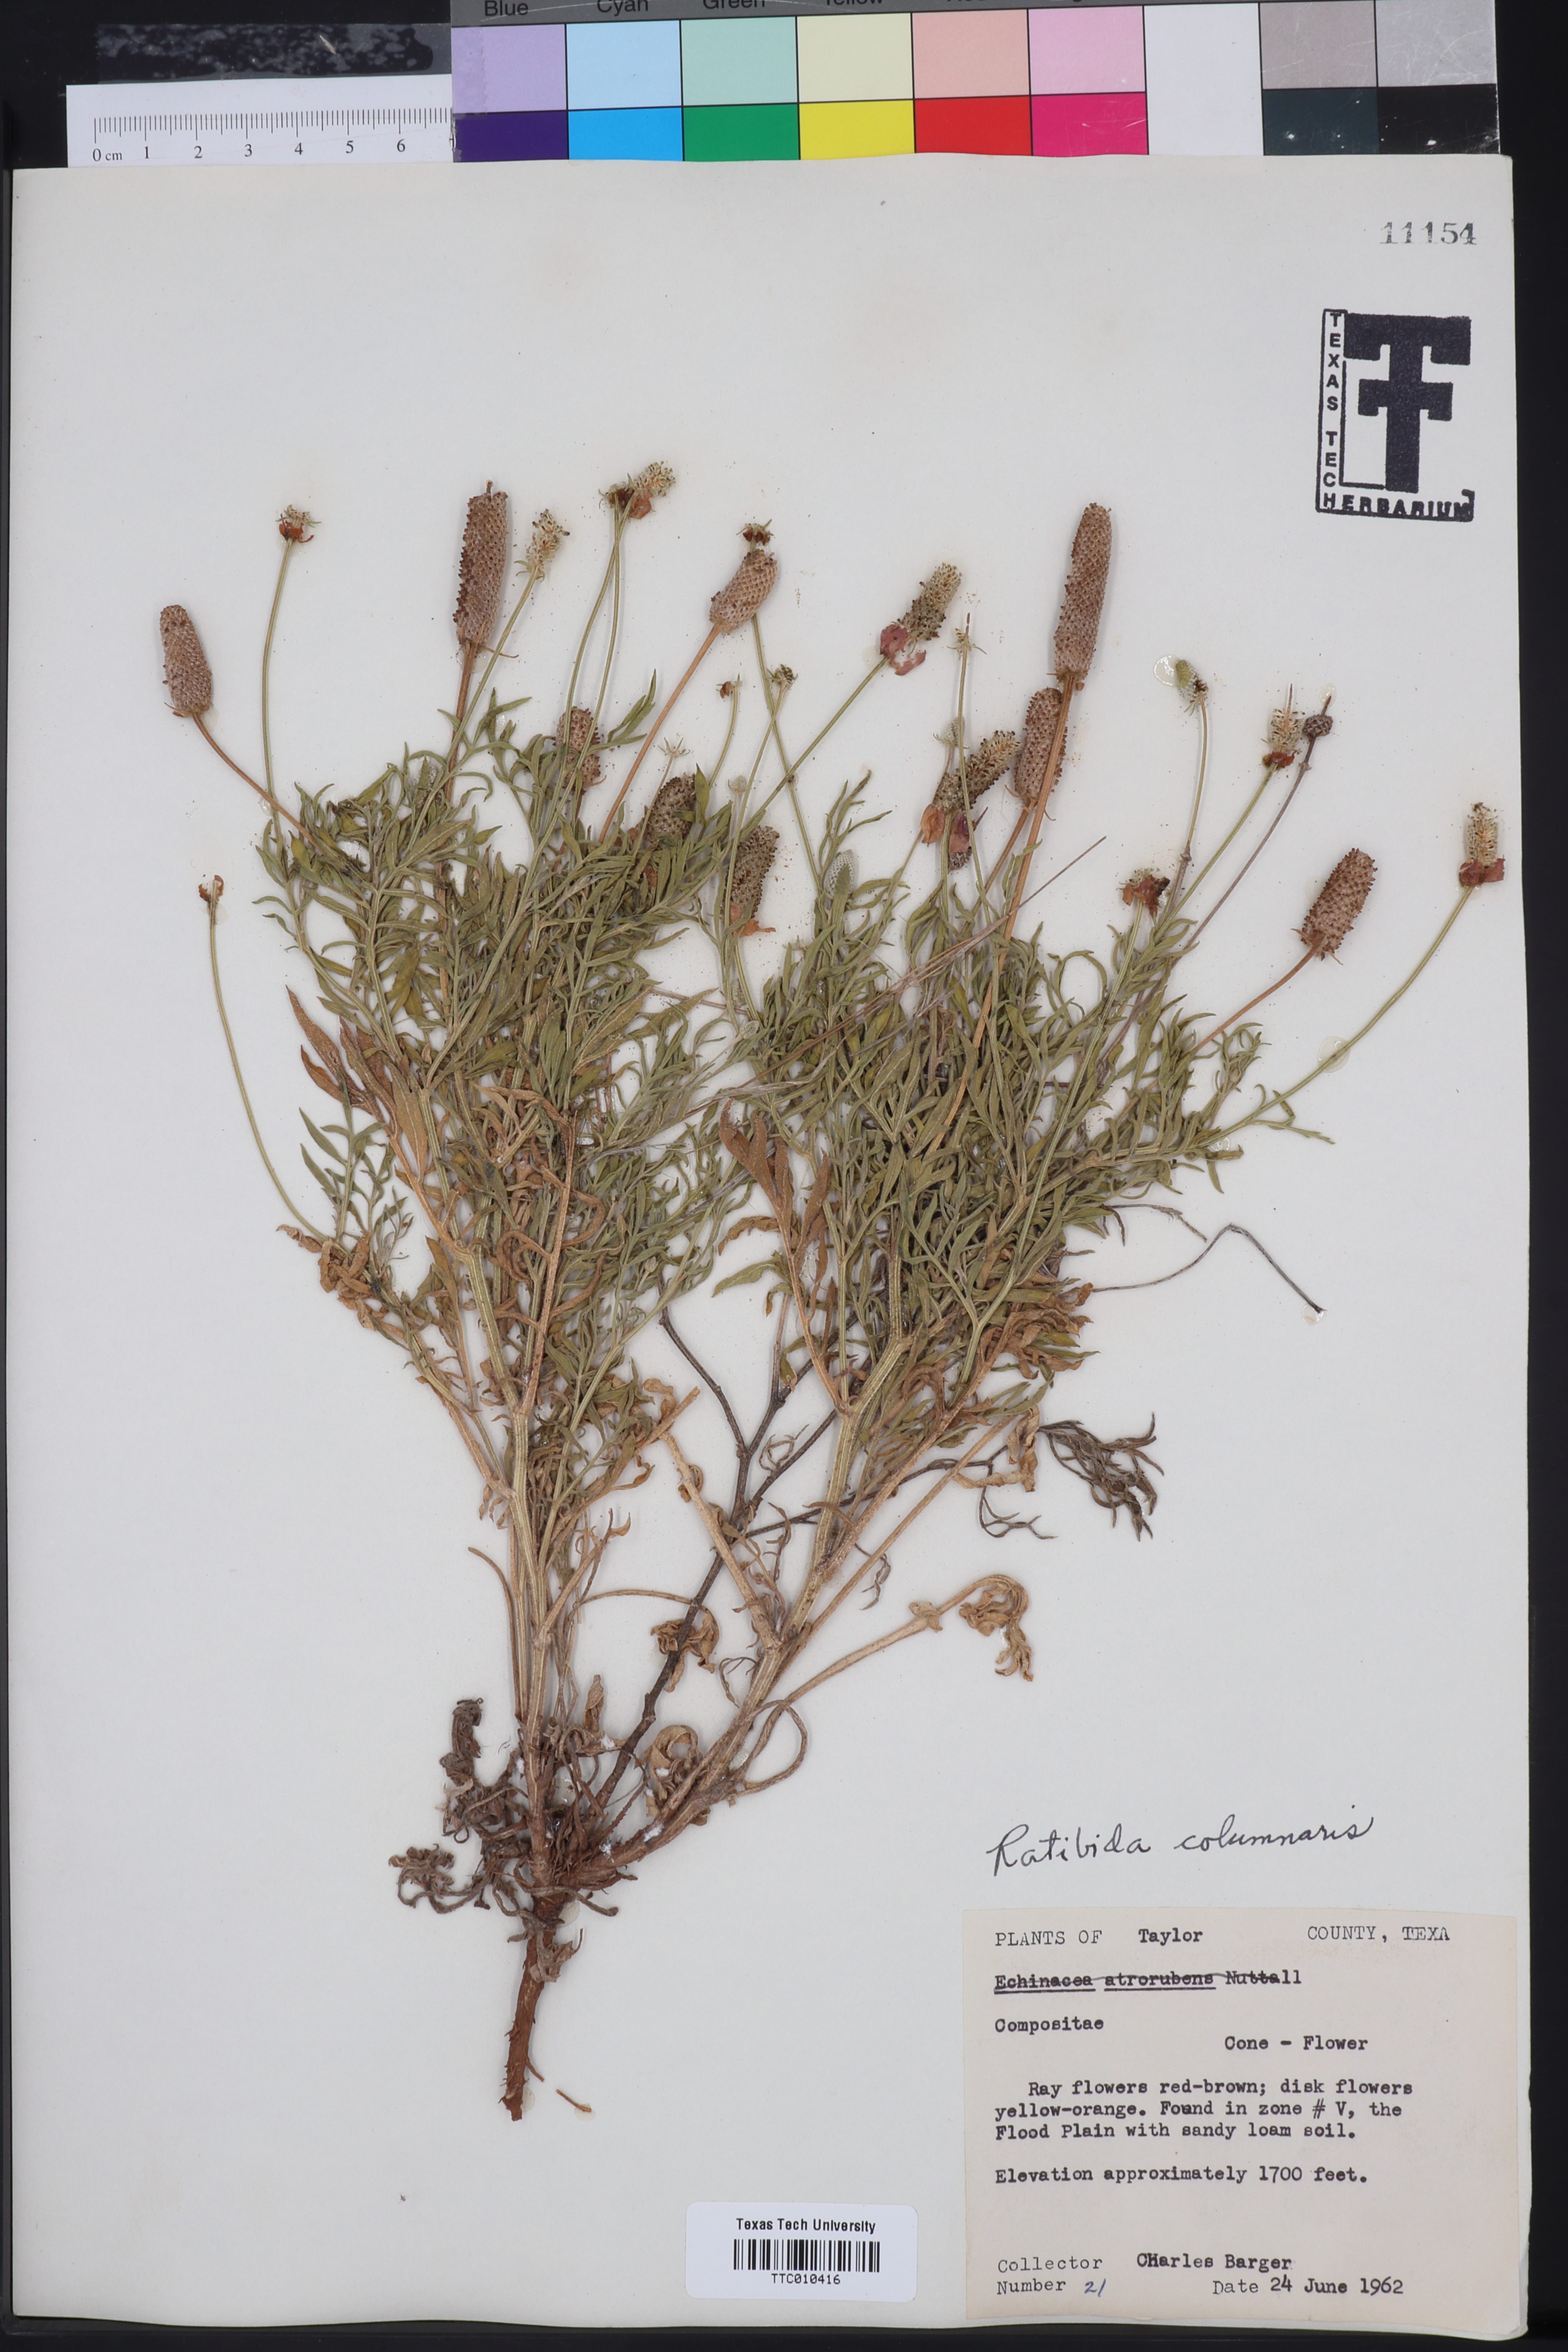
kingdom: Plantae
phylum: Tracheophyta
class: Magnoliopsida
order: Asterales
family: Asteraceae
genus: Ratibida
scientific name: Ratibida columnifera
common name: Prairie coneflower
